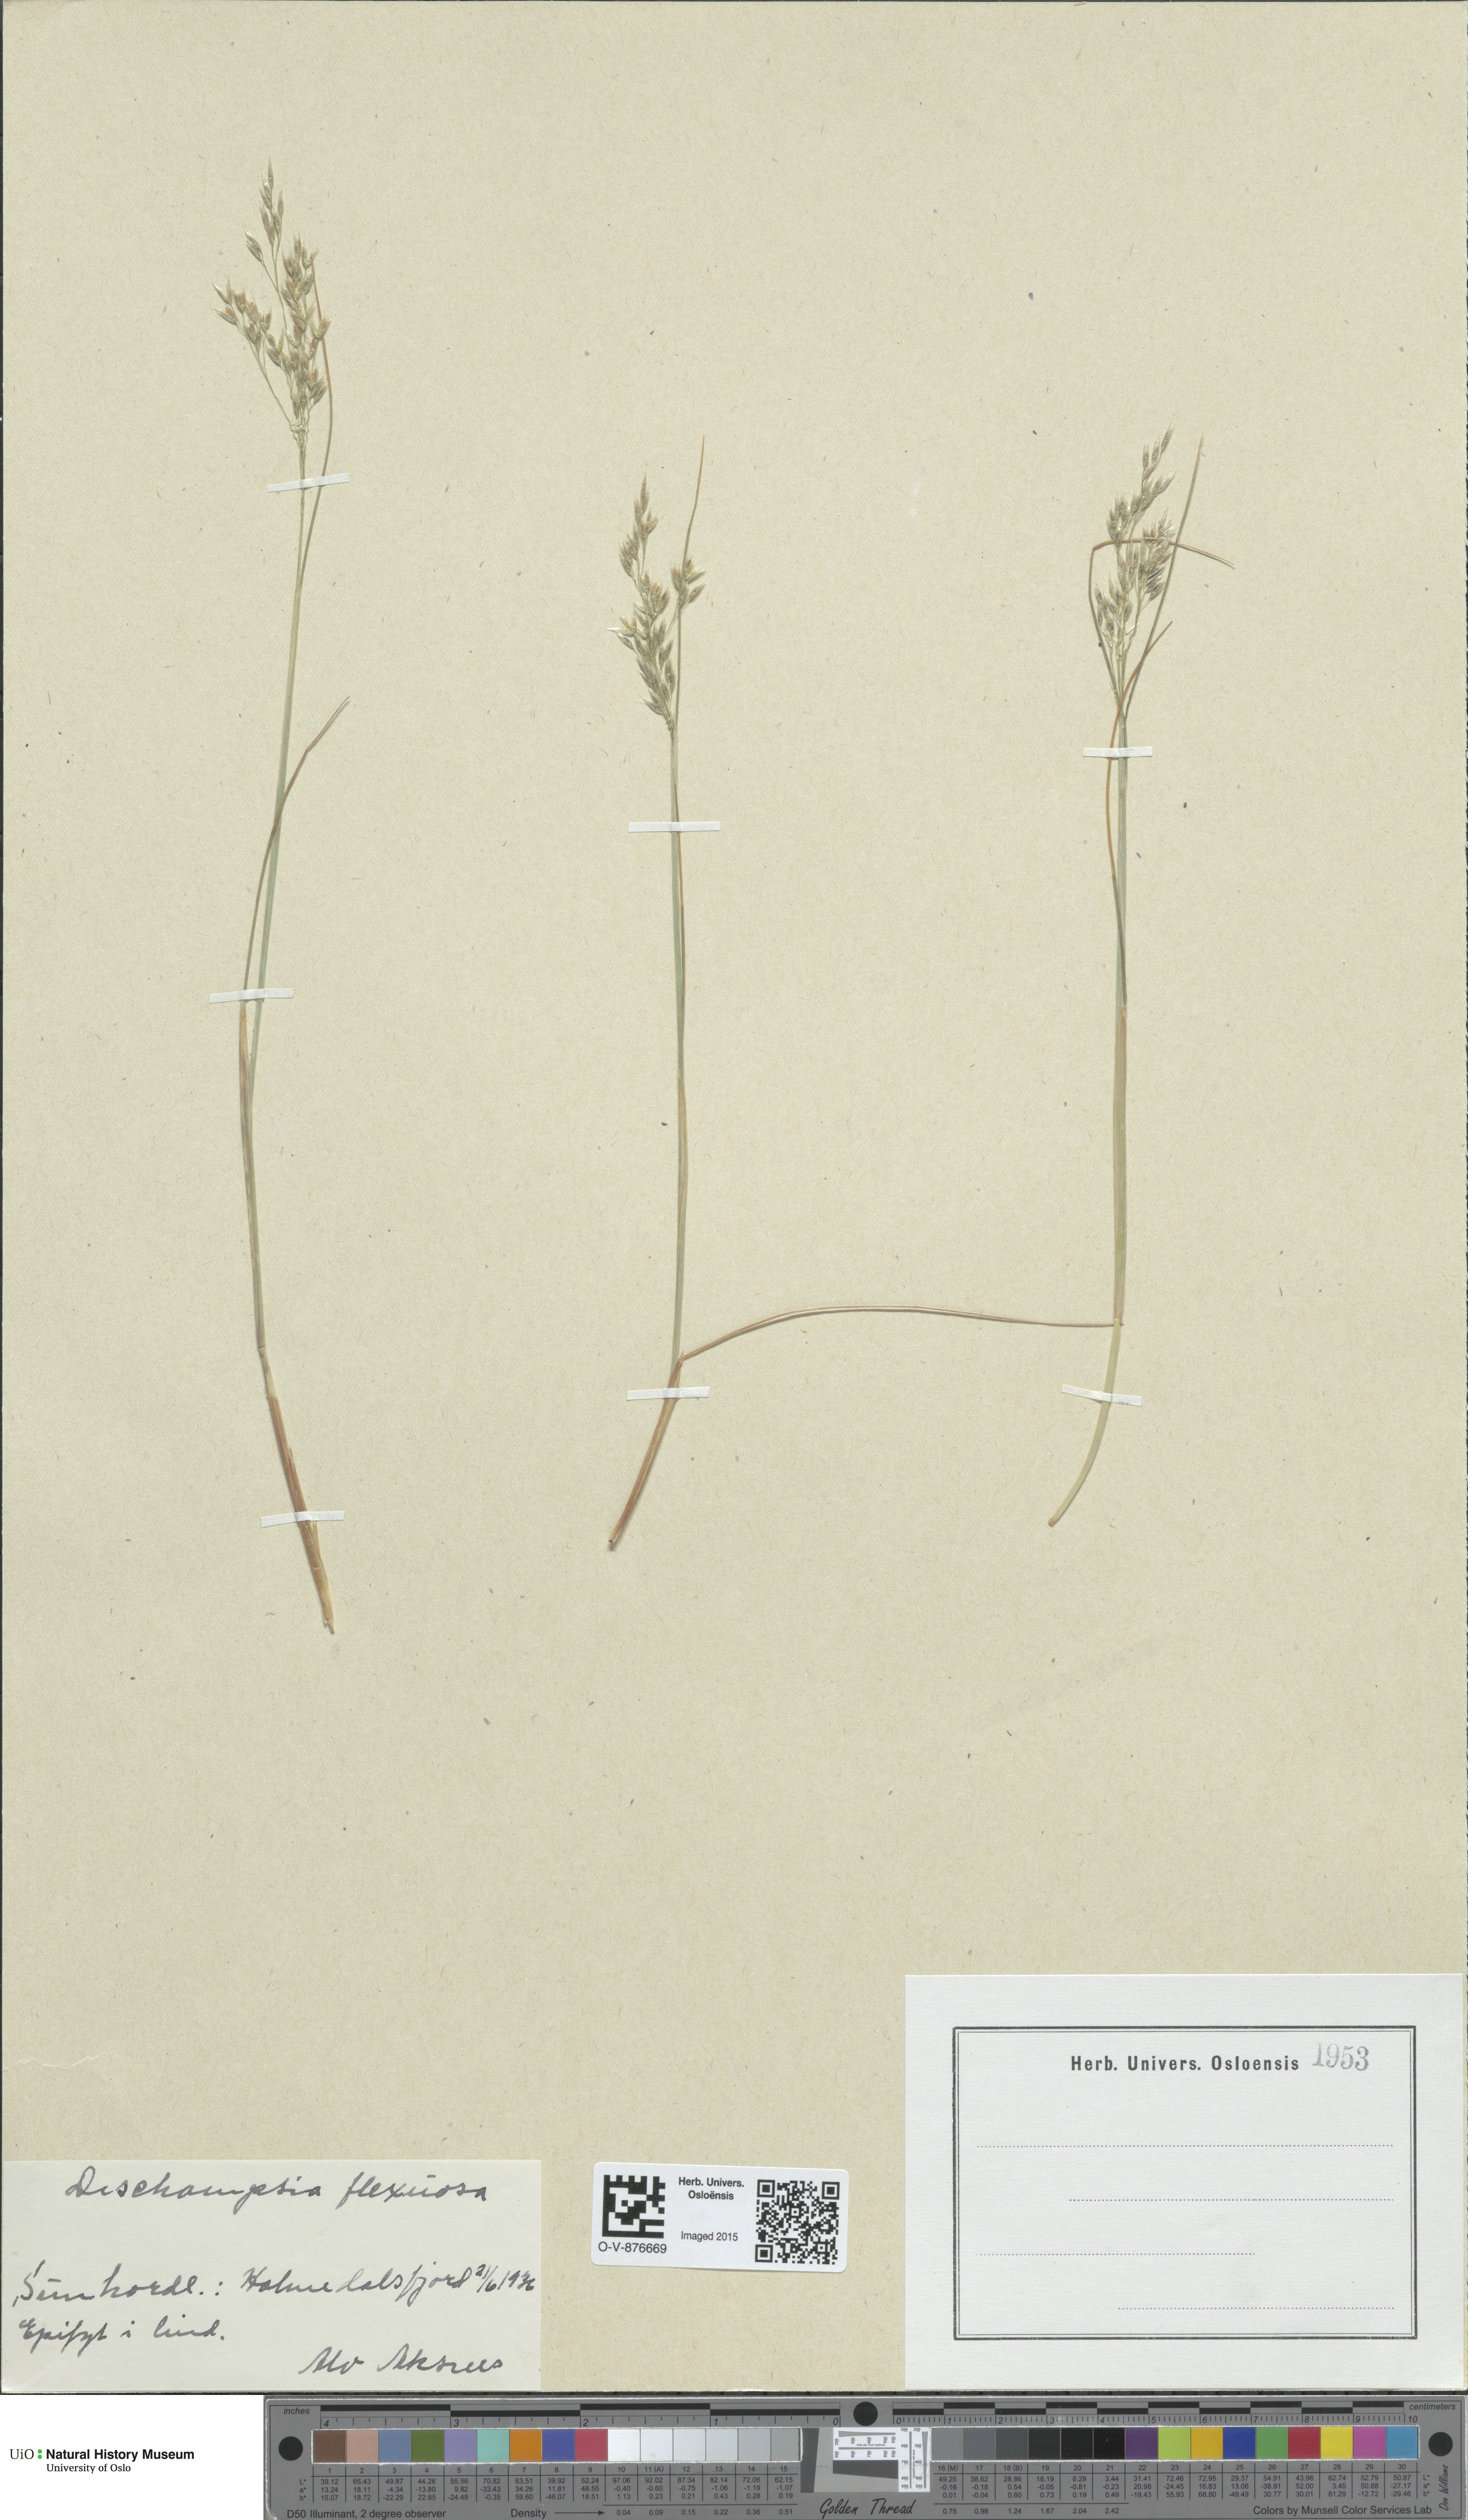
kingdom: Plantae
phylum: Tracheophyta
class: Liliopsida
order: Poales
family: Poaceae
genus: Avenella
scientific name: Avenella flexuosa
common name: Wavy hairgrass
